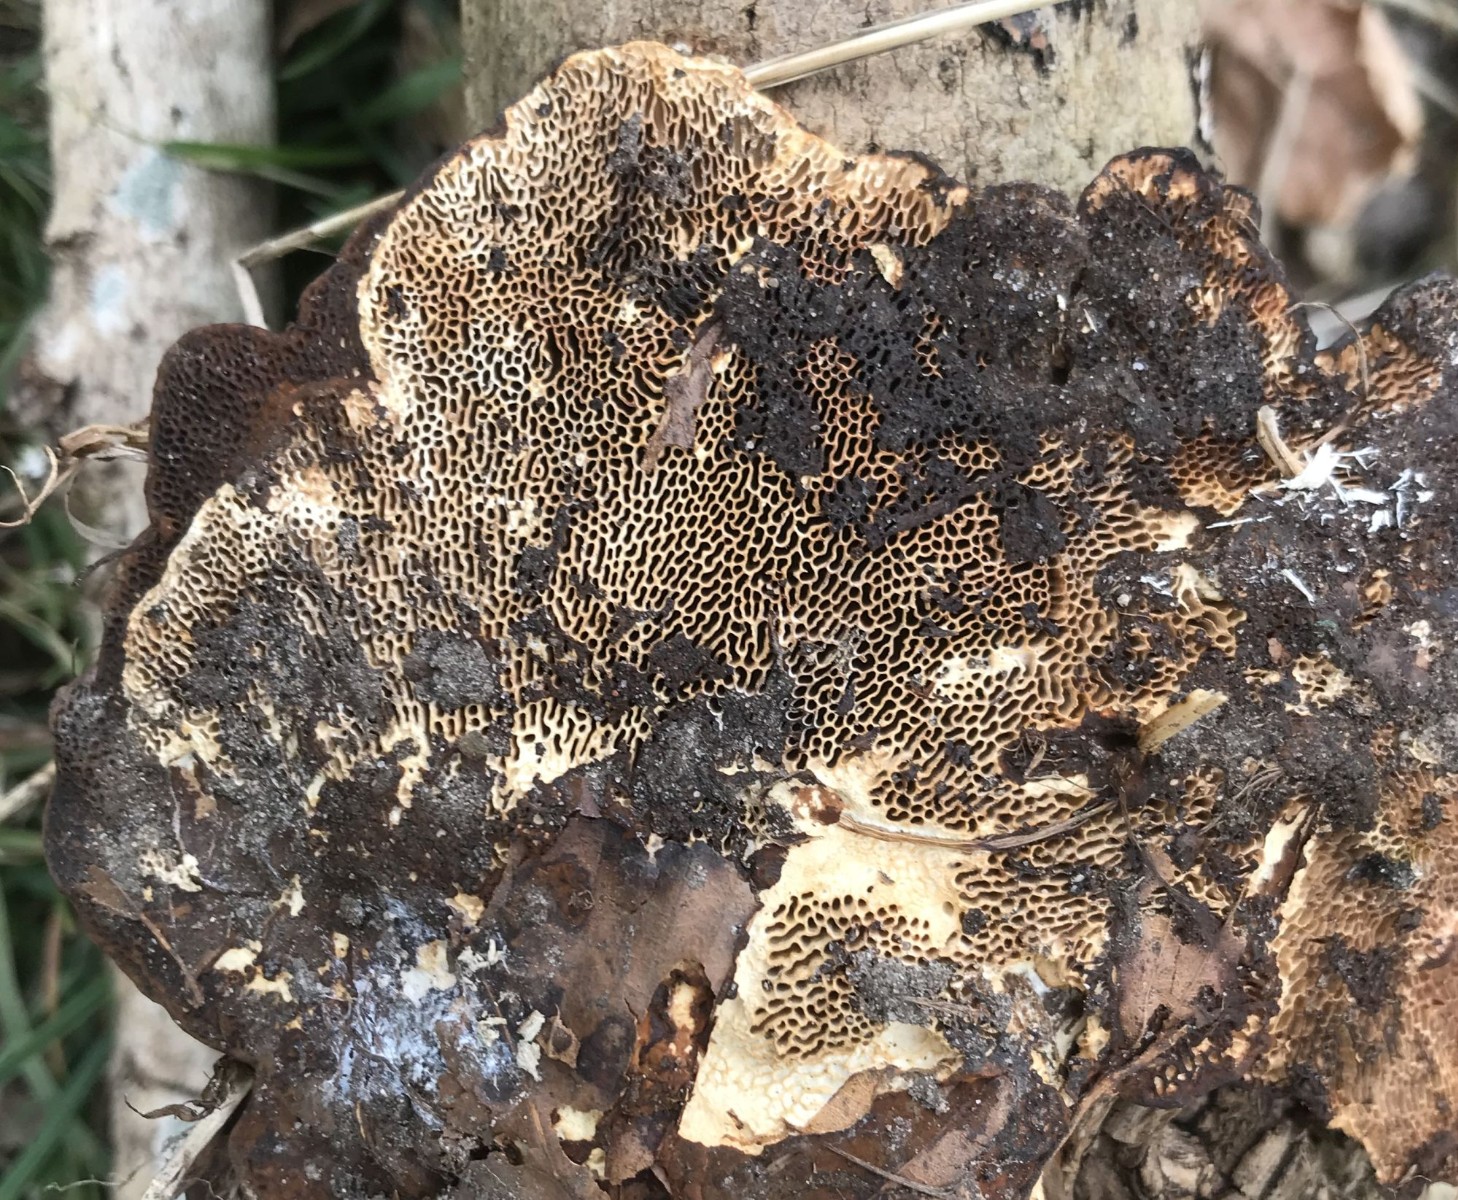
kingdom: Fungi
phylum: Basidiomycota
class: Agaricomycetes
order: Polyporales
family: Polyporaceae
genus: Podofomes
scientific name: Podofomes mollis
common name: blød begporesvamp
